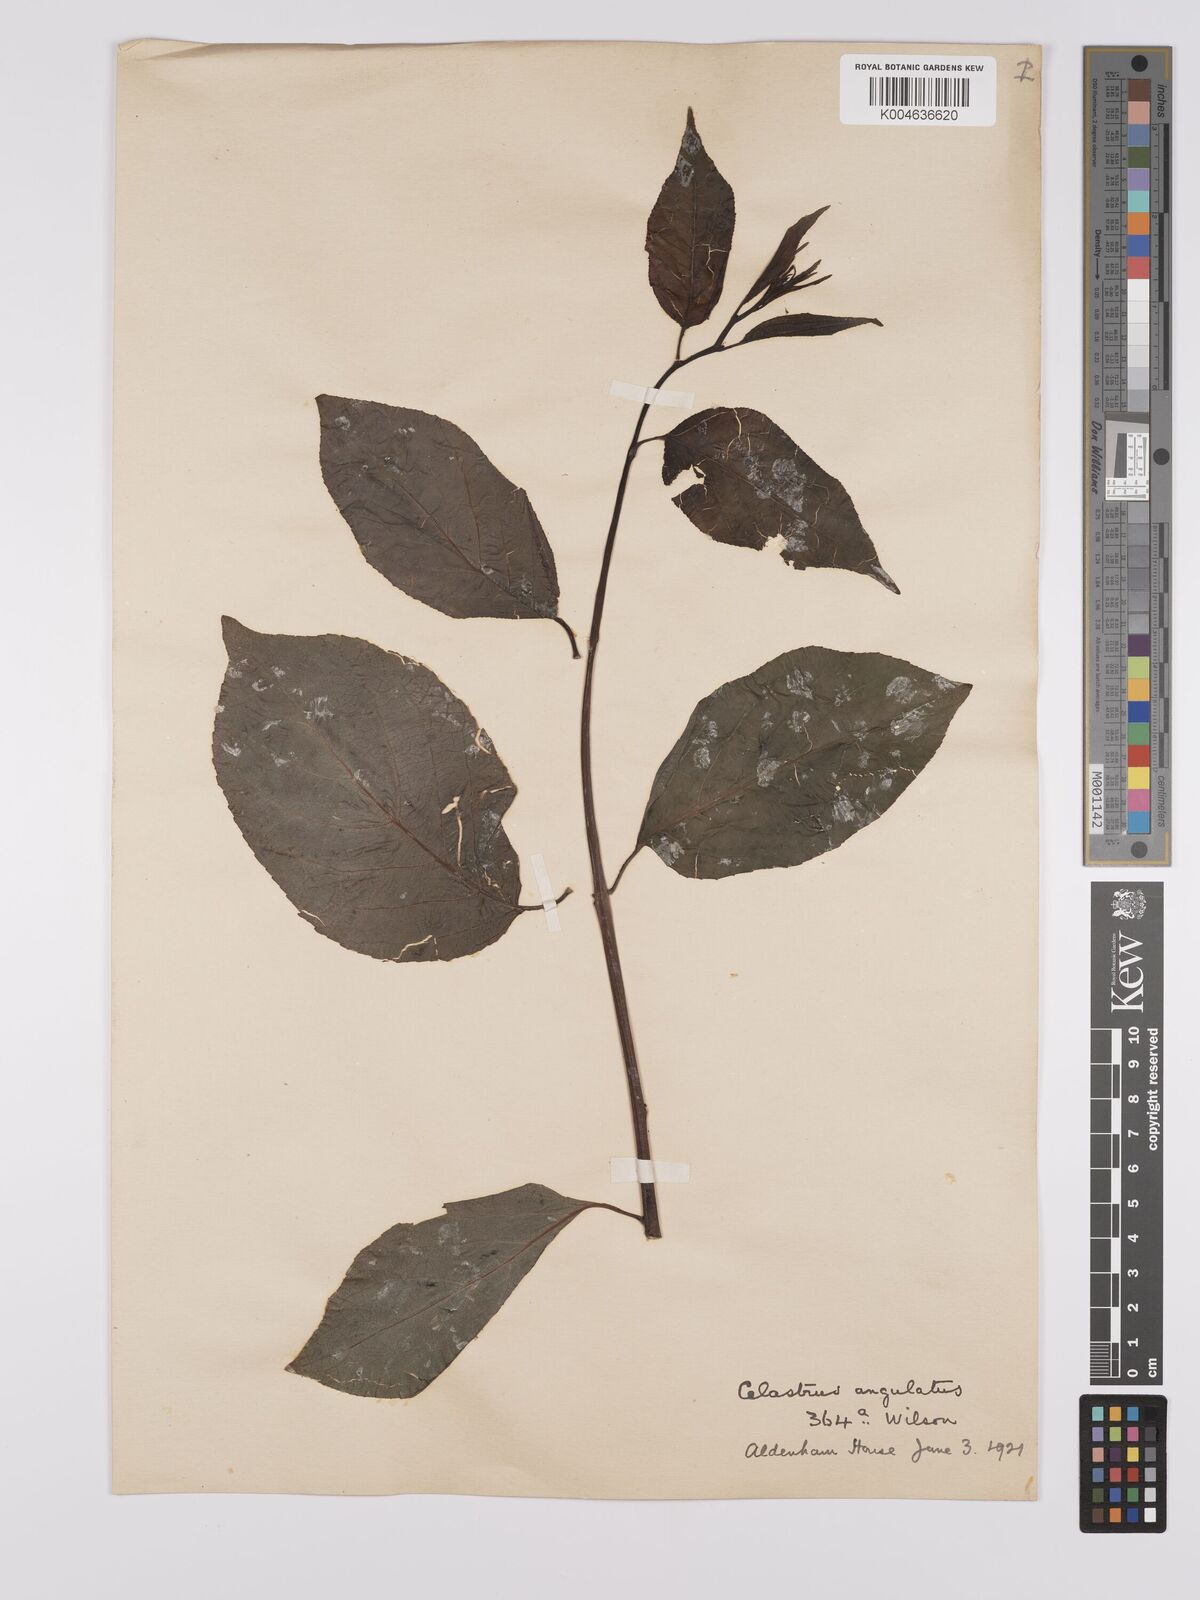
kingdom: Plantae
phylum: Tracheophyta
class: Magnoliopsida
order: Celastrales
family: Celastraceae
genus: Celastrus
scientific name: Celastrus angulatus
